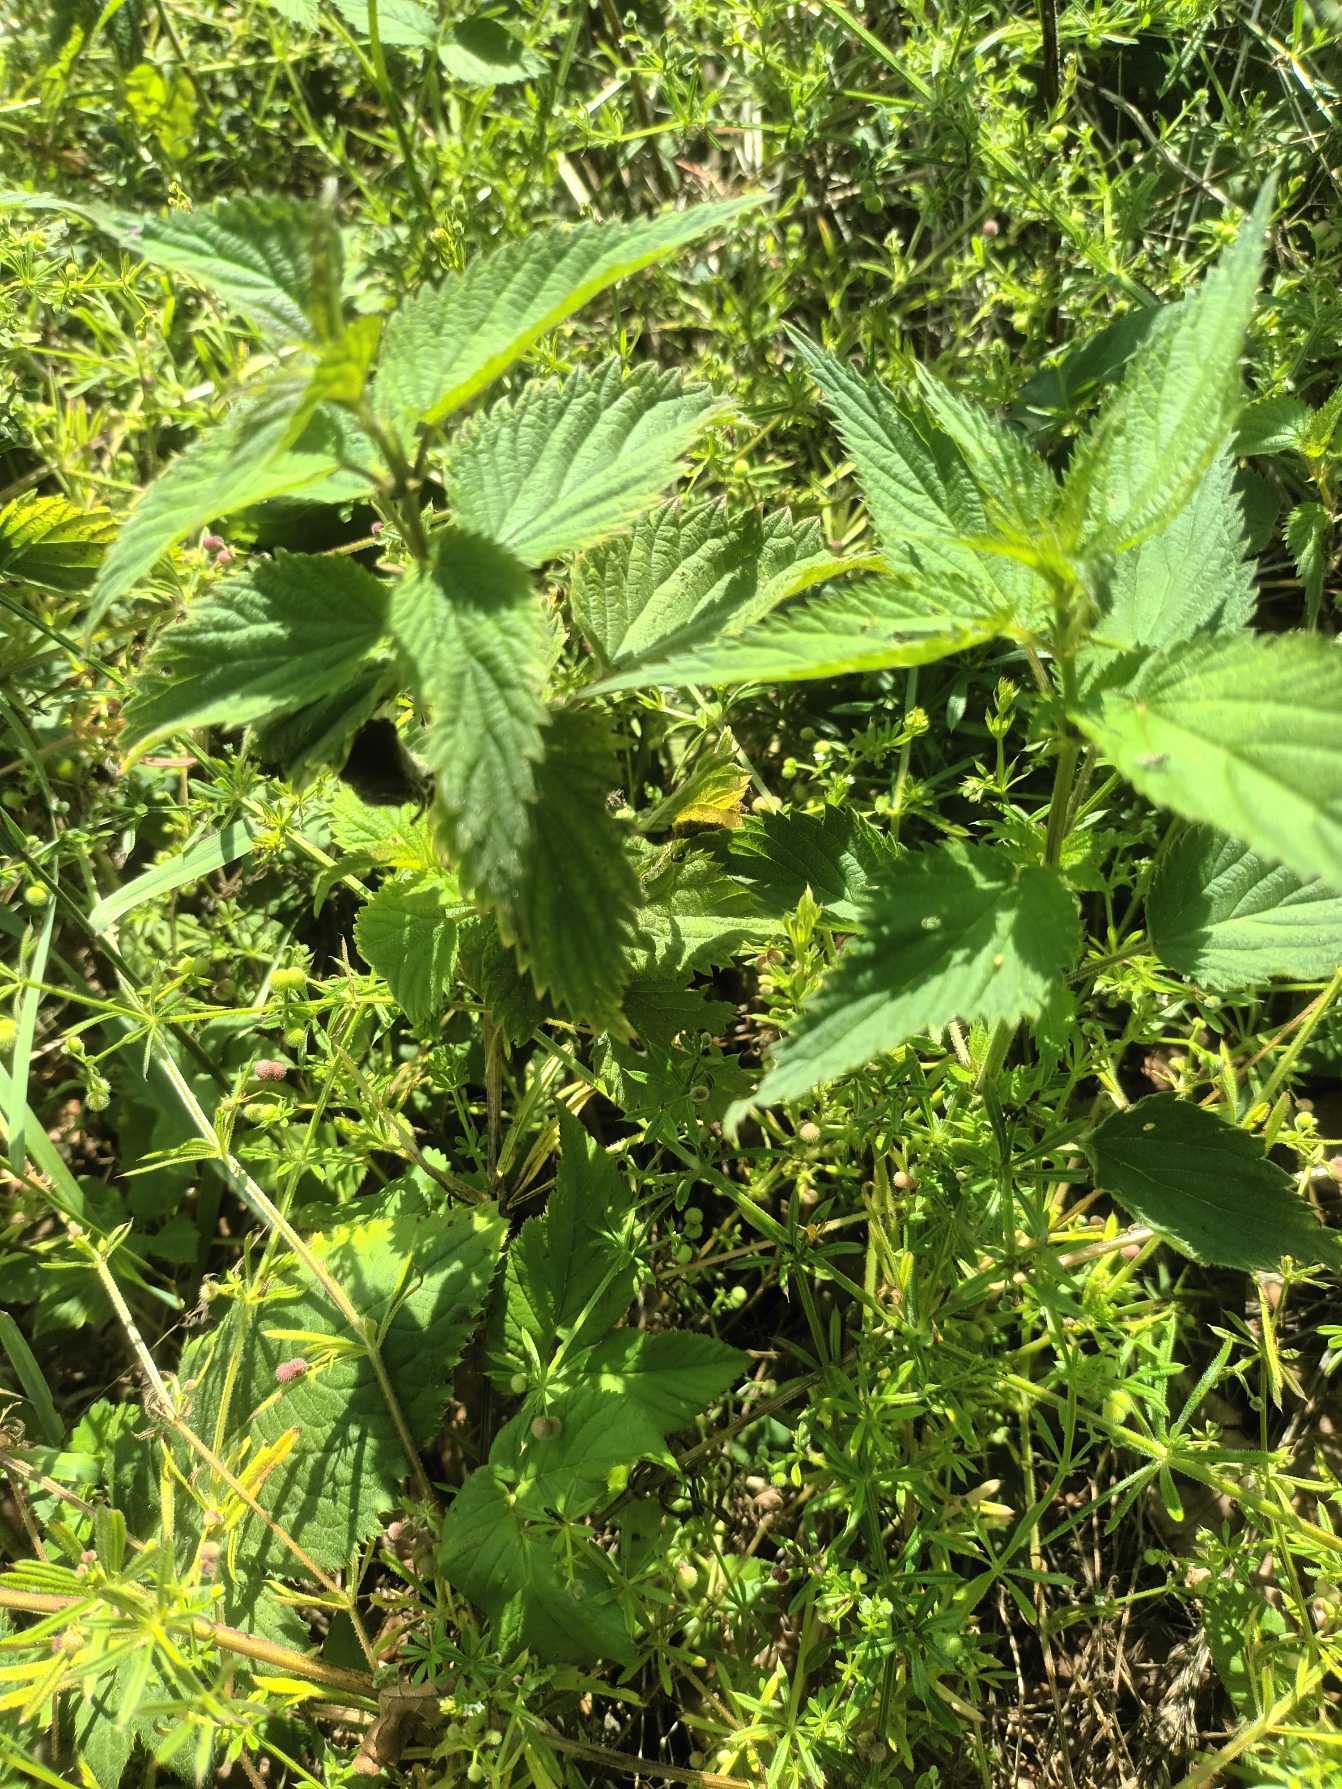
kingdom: Plantae
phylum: Tracheophyta
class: Magnoliopsida
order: Rosales
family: Urticaceae
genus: Urtica
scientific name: Urtica dioica
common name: Stor nælde
